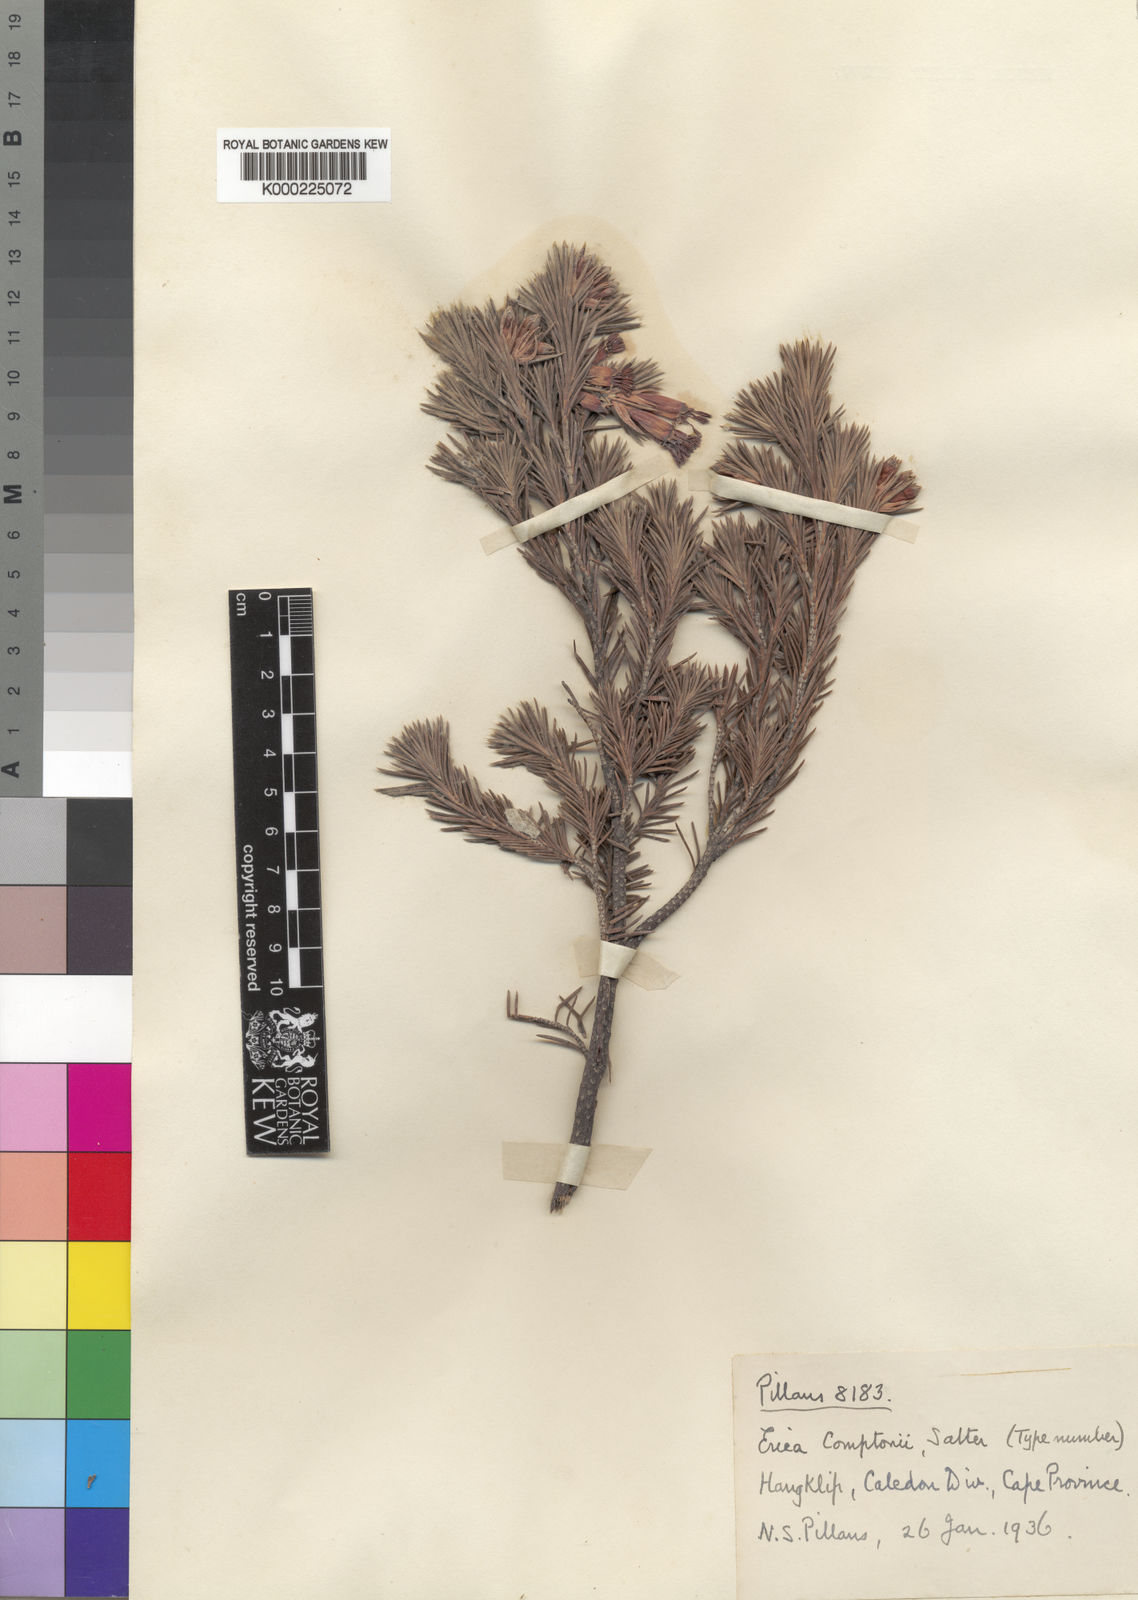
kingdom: Plantae
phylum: Tracheophyta
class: Magnoliopsida
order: Ericales
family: Ericaceae
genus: Erica
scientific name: Erica banksia
